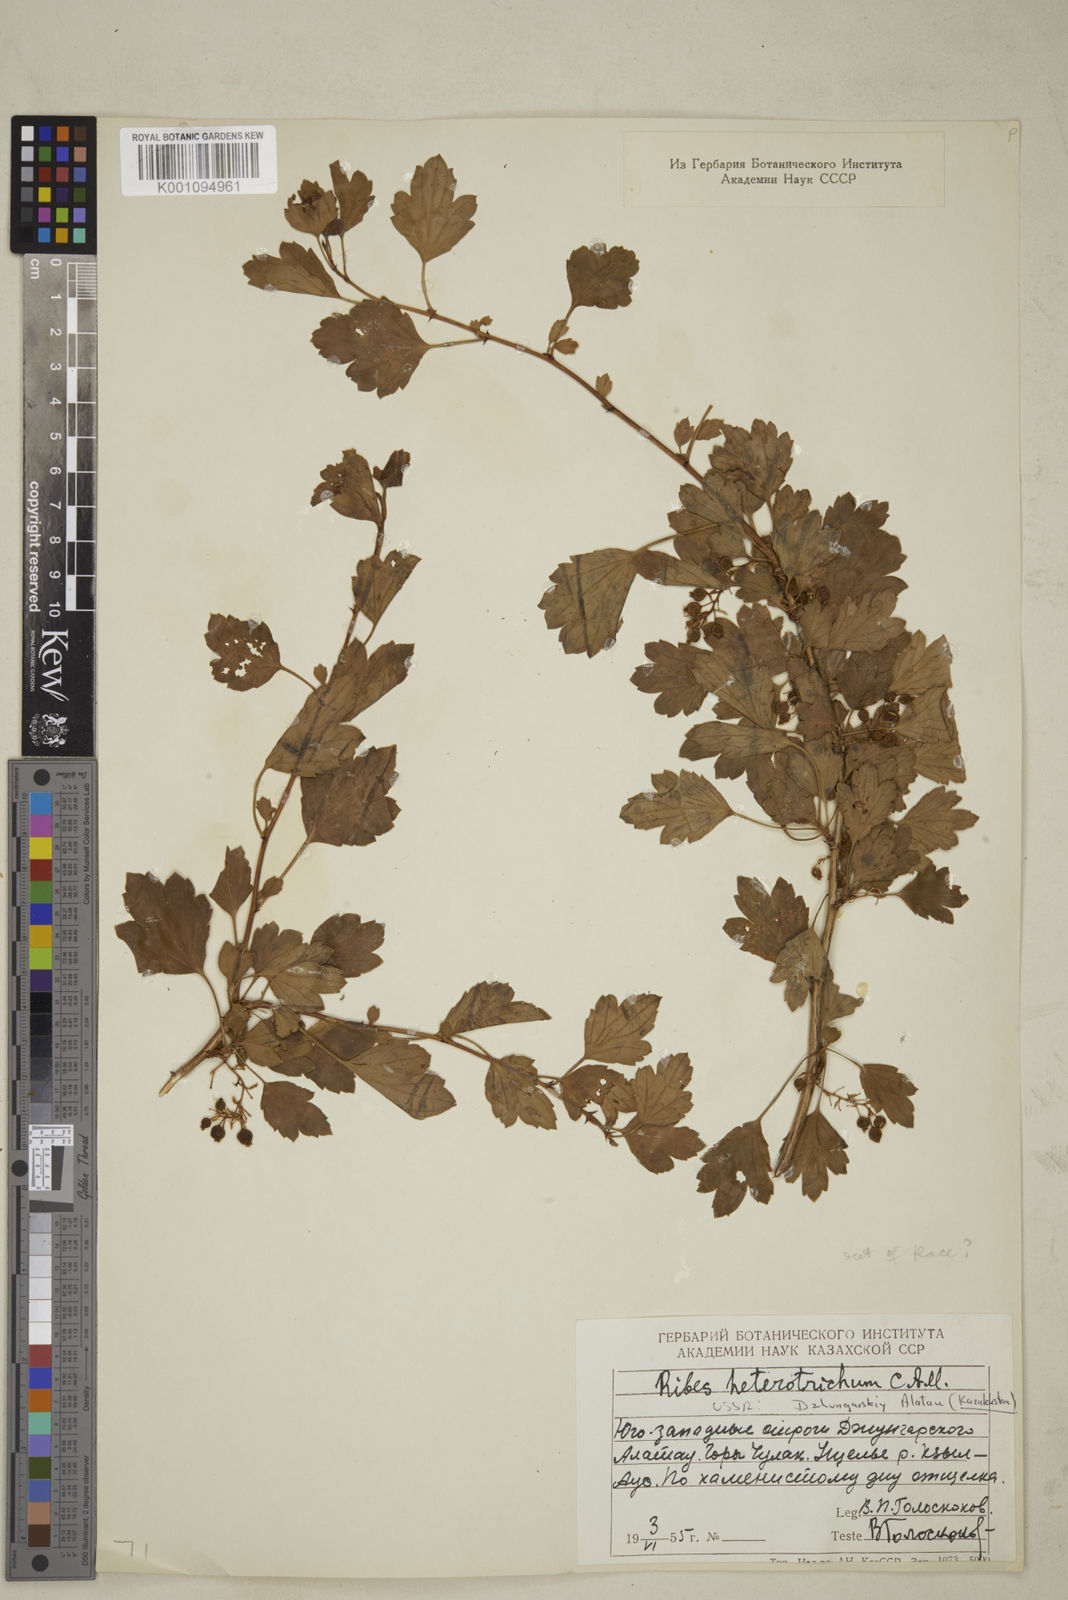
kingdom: Plantae
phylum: Tracheophyta
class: Magnoliopsida
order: Saxifragales
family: Grossulariaceae
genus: Ribes
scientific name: Ribes heterotrichum
